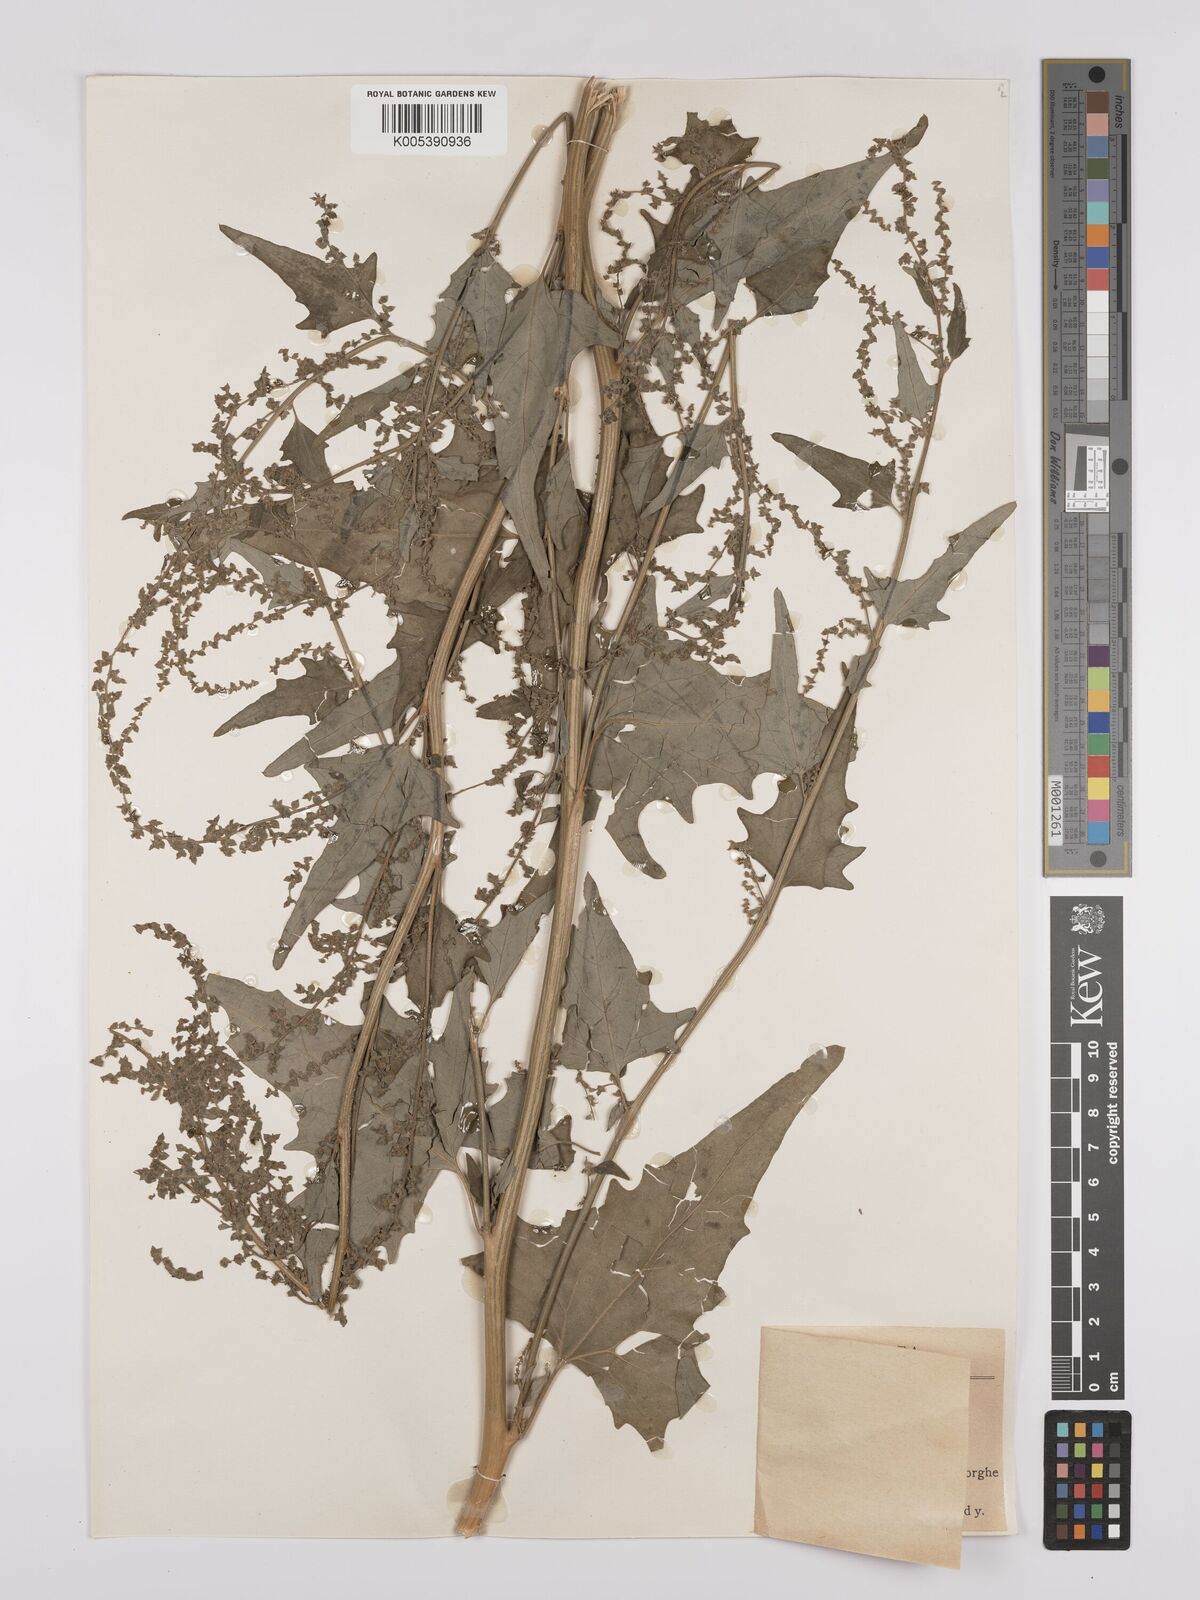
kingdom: Plantae
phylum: Tracheophyta
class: Magnoliopsida
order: Caryophyllales
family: Amaranthaceae
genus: Atriplex
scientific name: Atriplex
